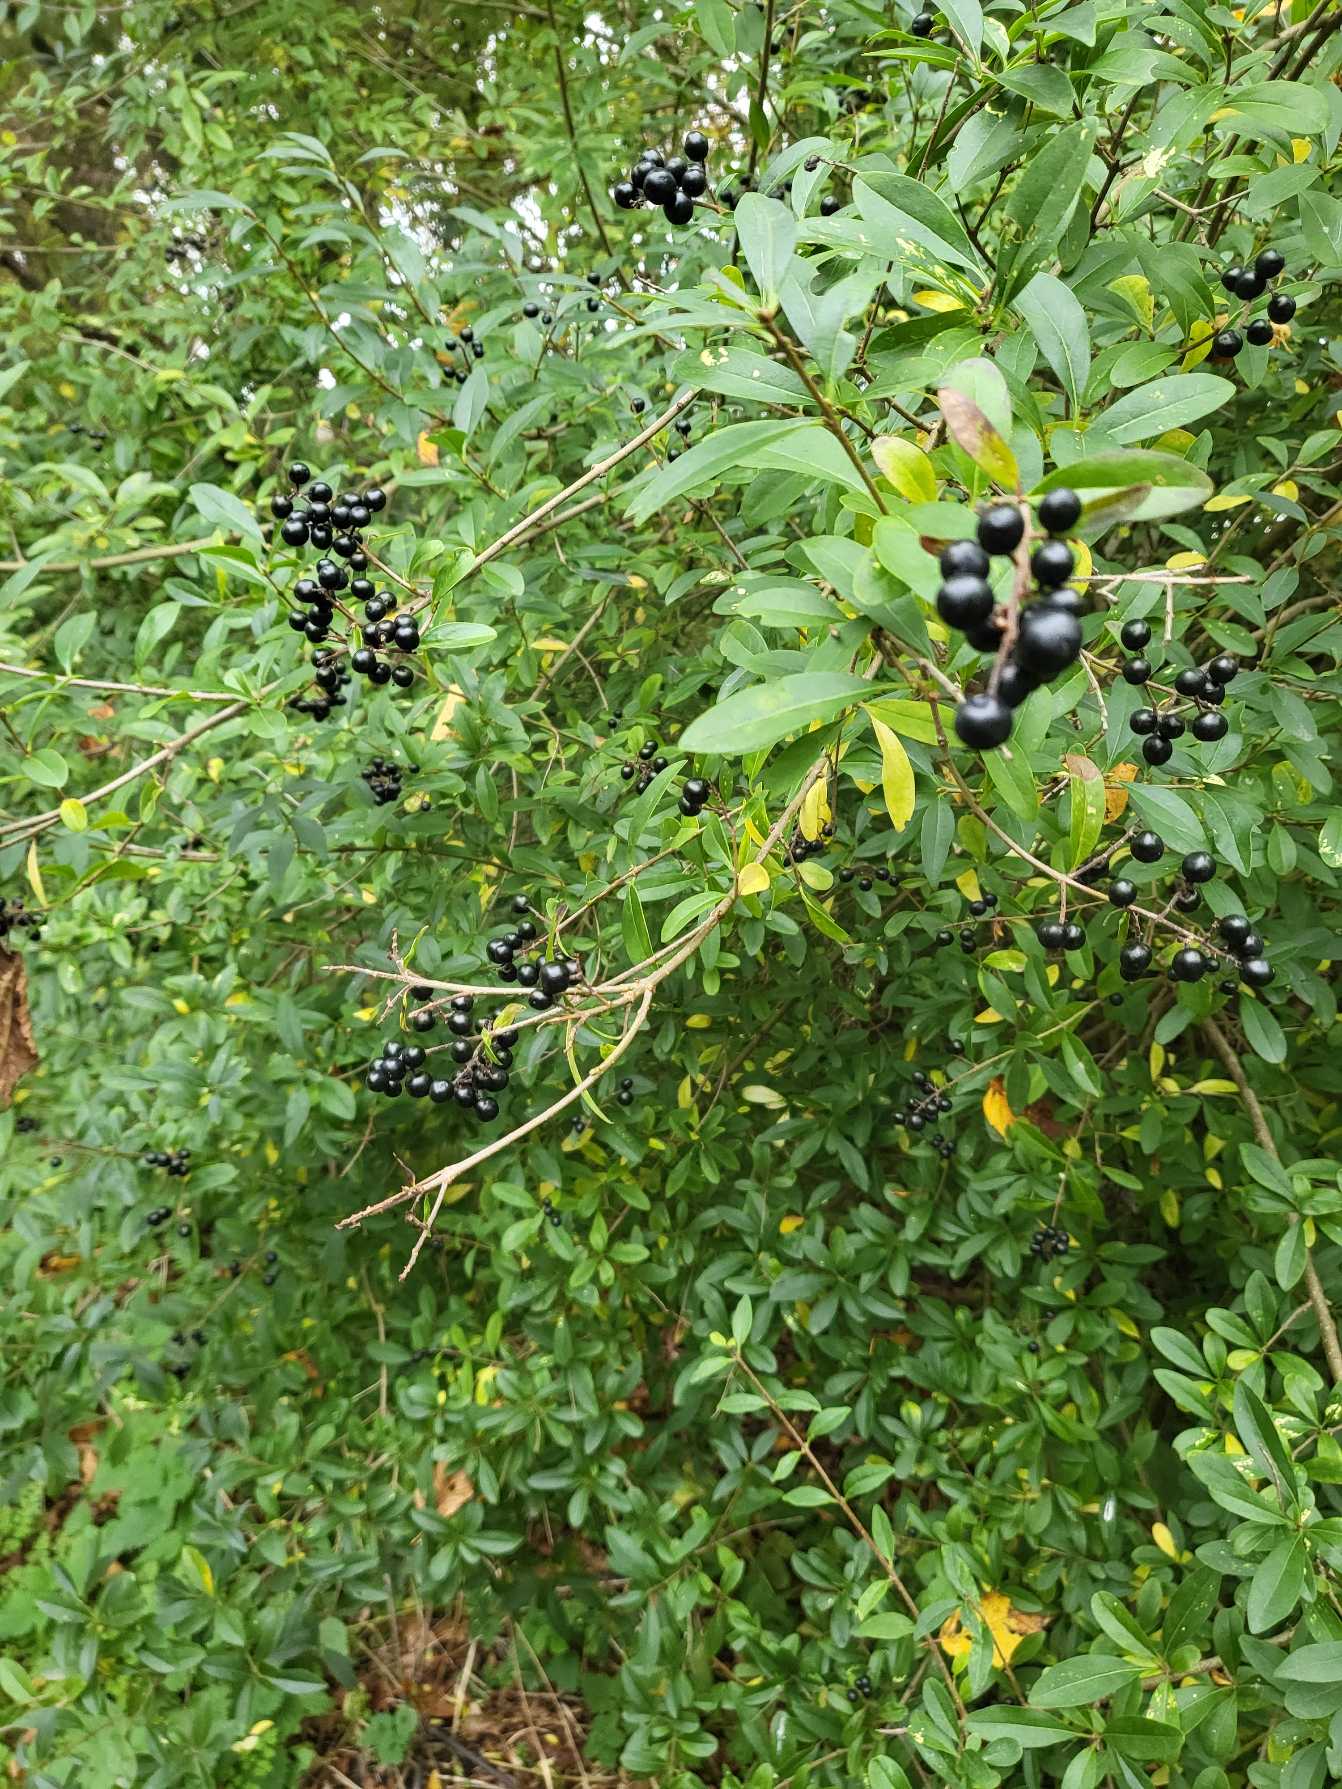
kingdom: Plantae
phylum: Tracheophyta
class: Magnoliopsida
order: Lamiales
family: Oleaceae
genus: Ligustrum
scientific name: Ligustrum vulgare
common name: Liguster
